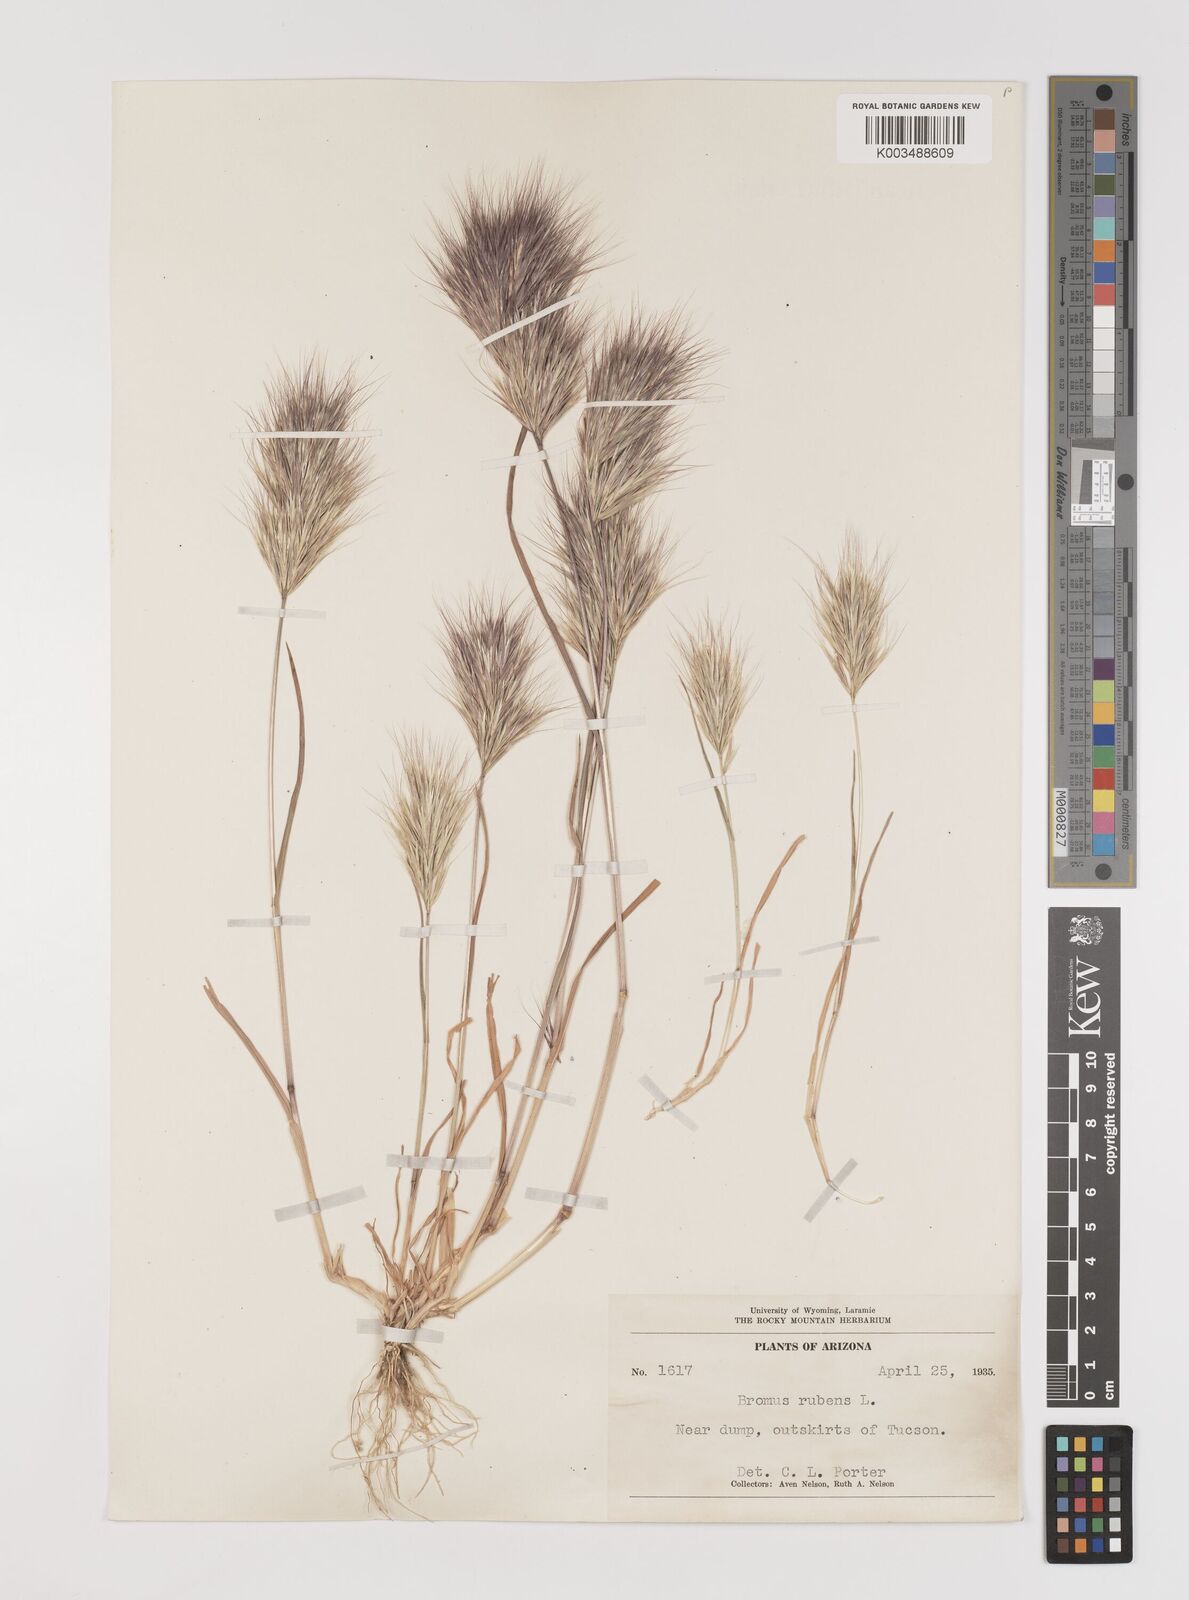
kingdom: Plantae
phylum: Tracheophyta
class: Liliopsida
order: Poales
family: Poaceae
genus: Bromus
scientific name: Bromus rubens
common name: Red brome
